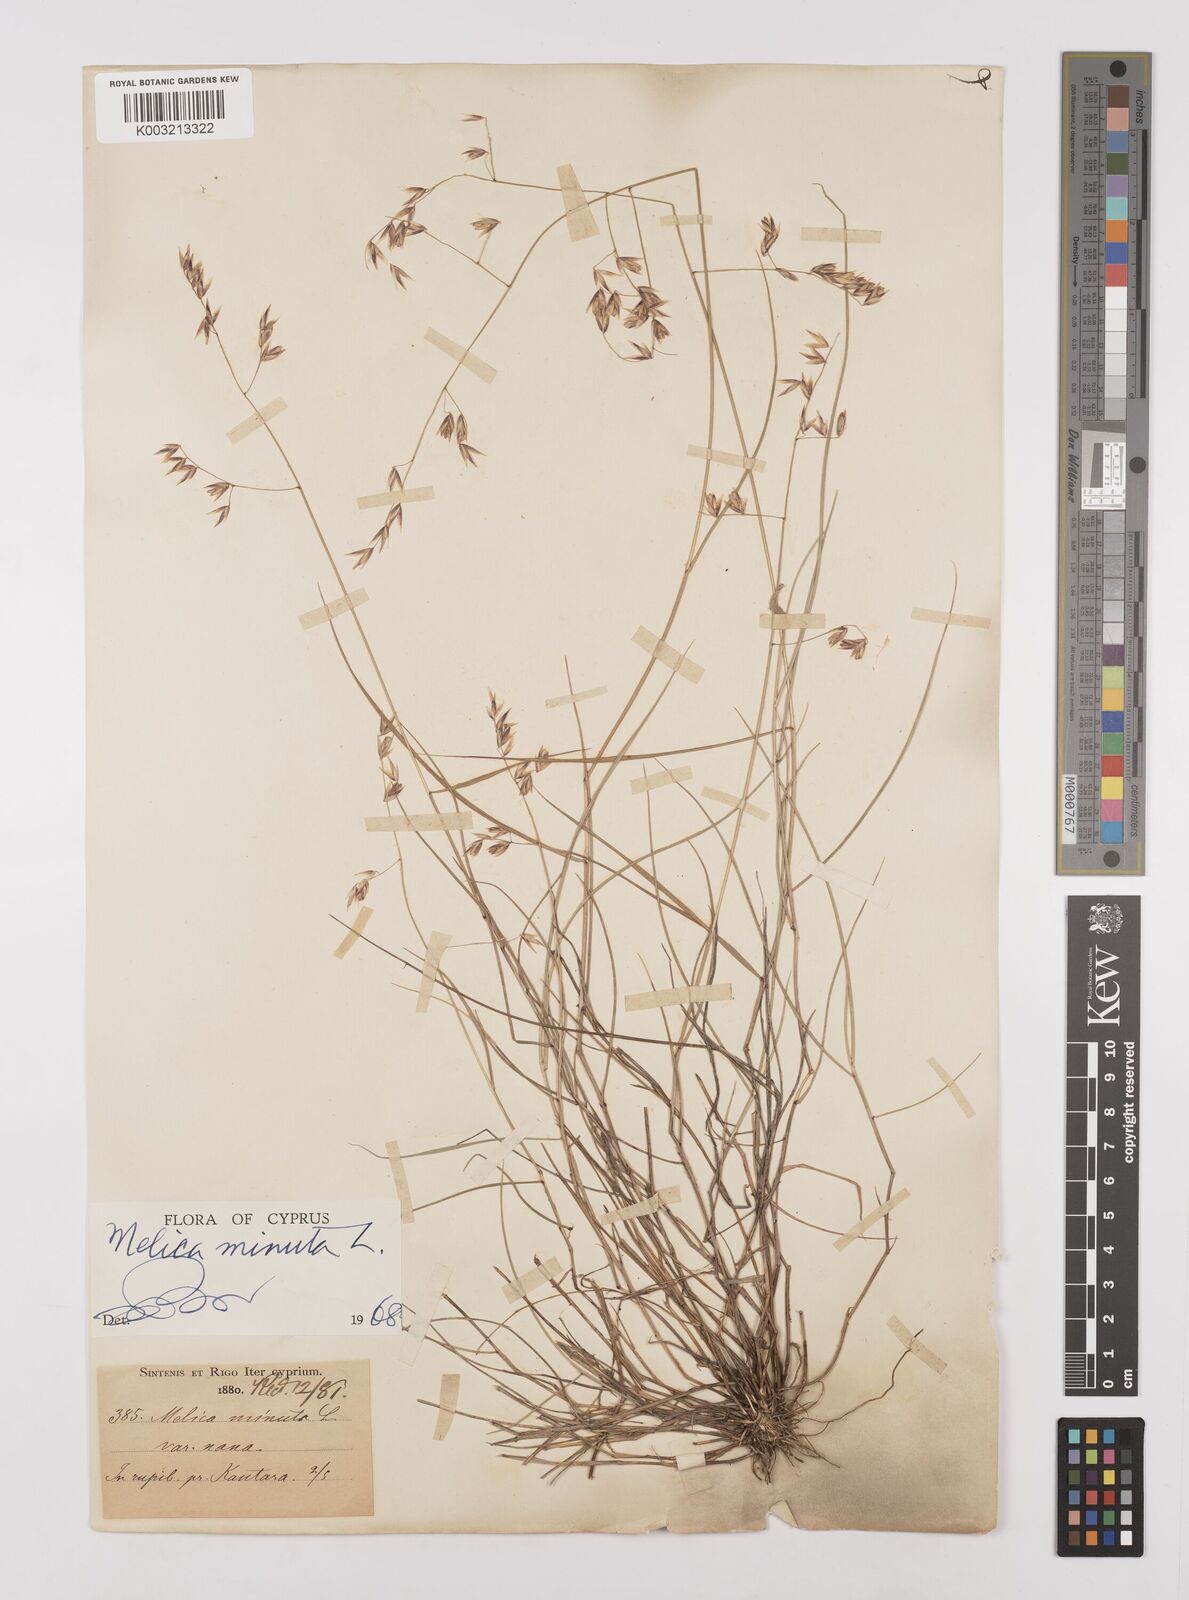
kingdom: Plantae
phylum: Tracheophyta
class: Liliopsida
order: Poales
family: Poaceae
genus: Melica
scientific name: Melica minuta
